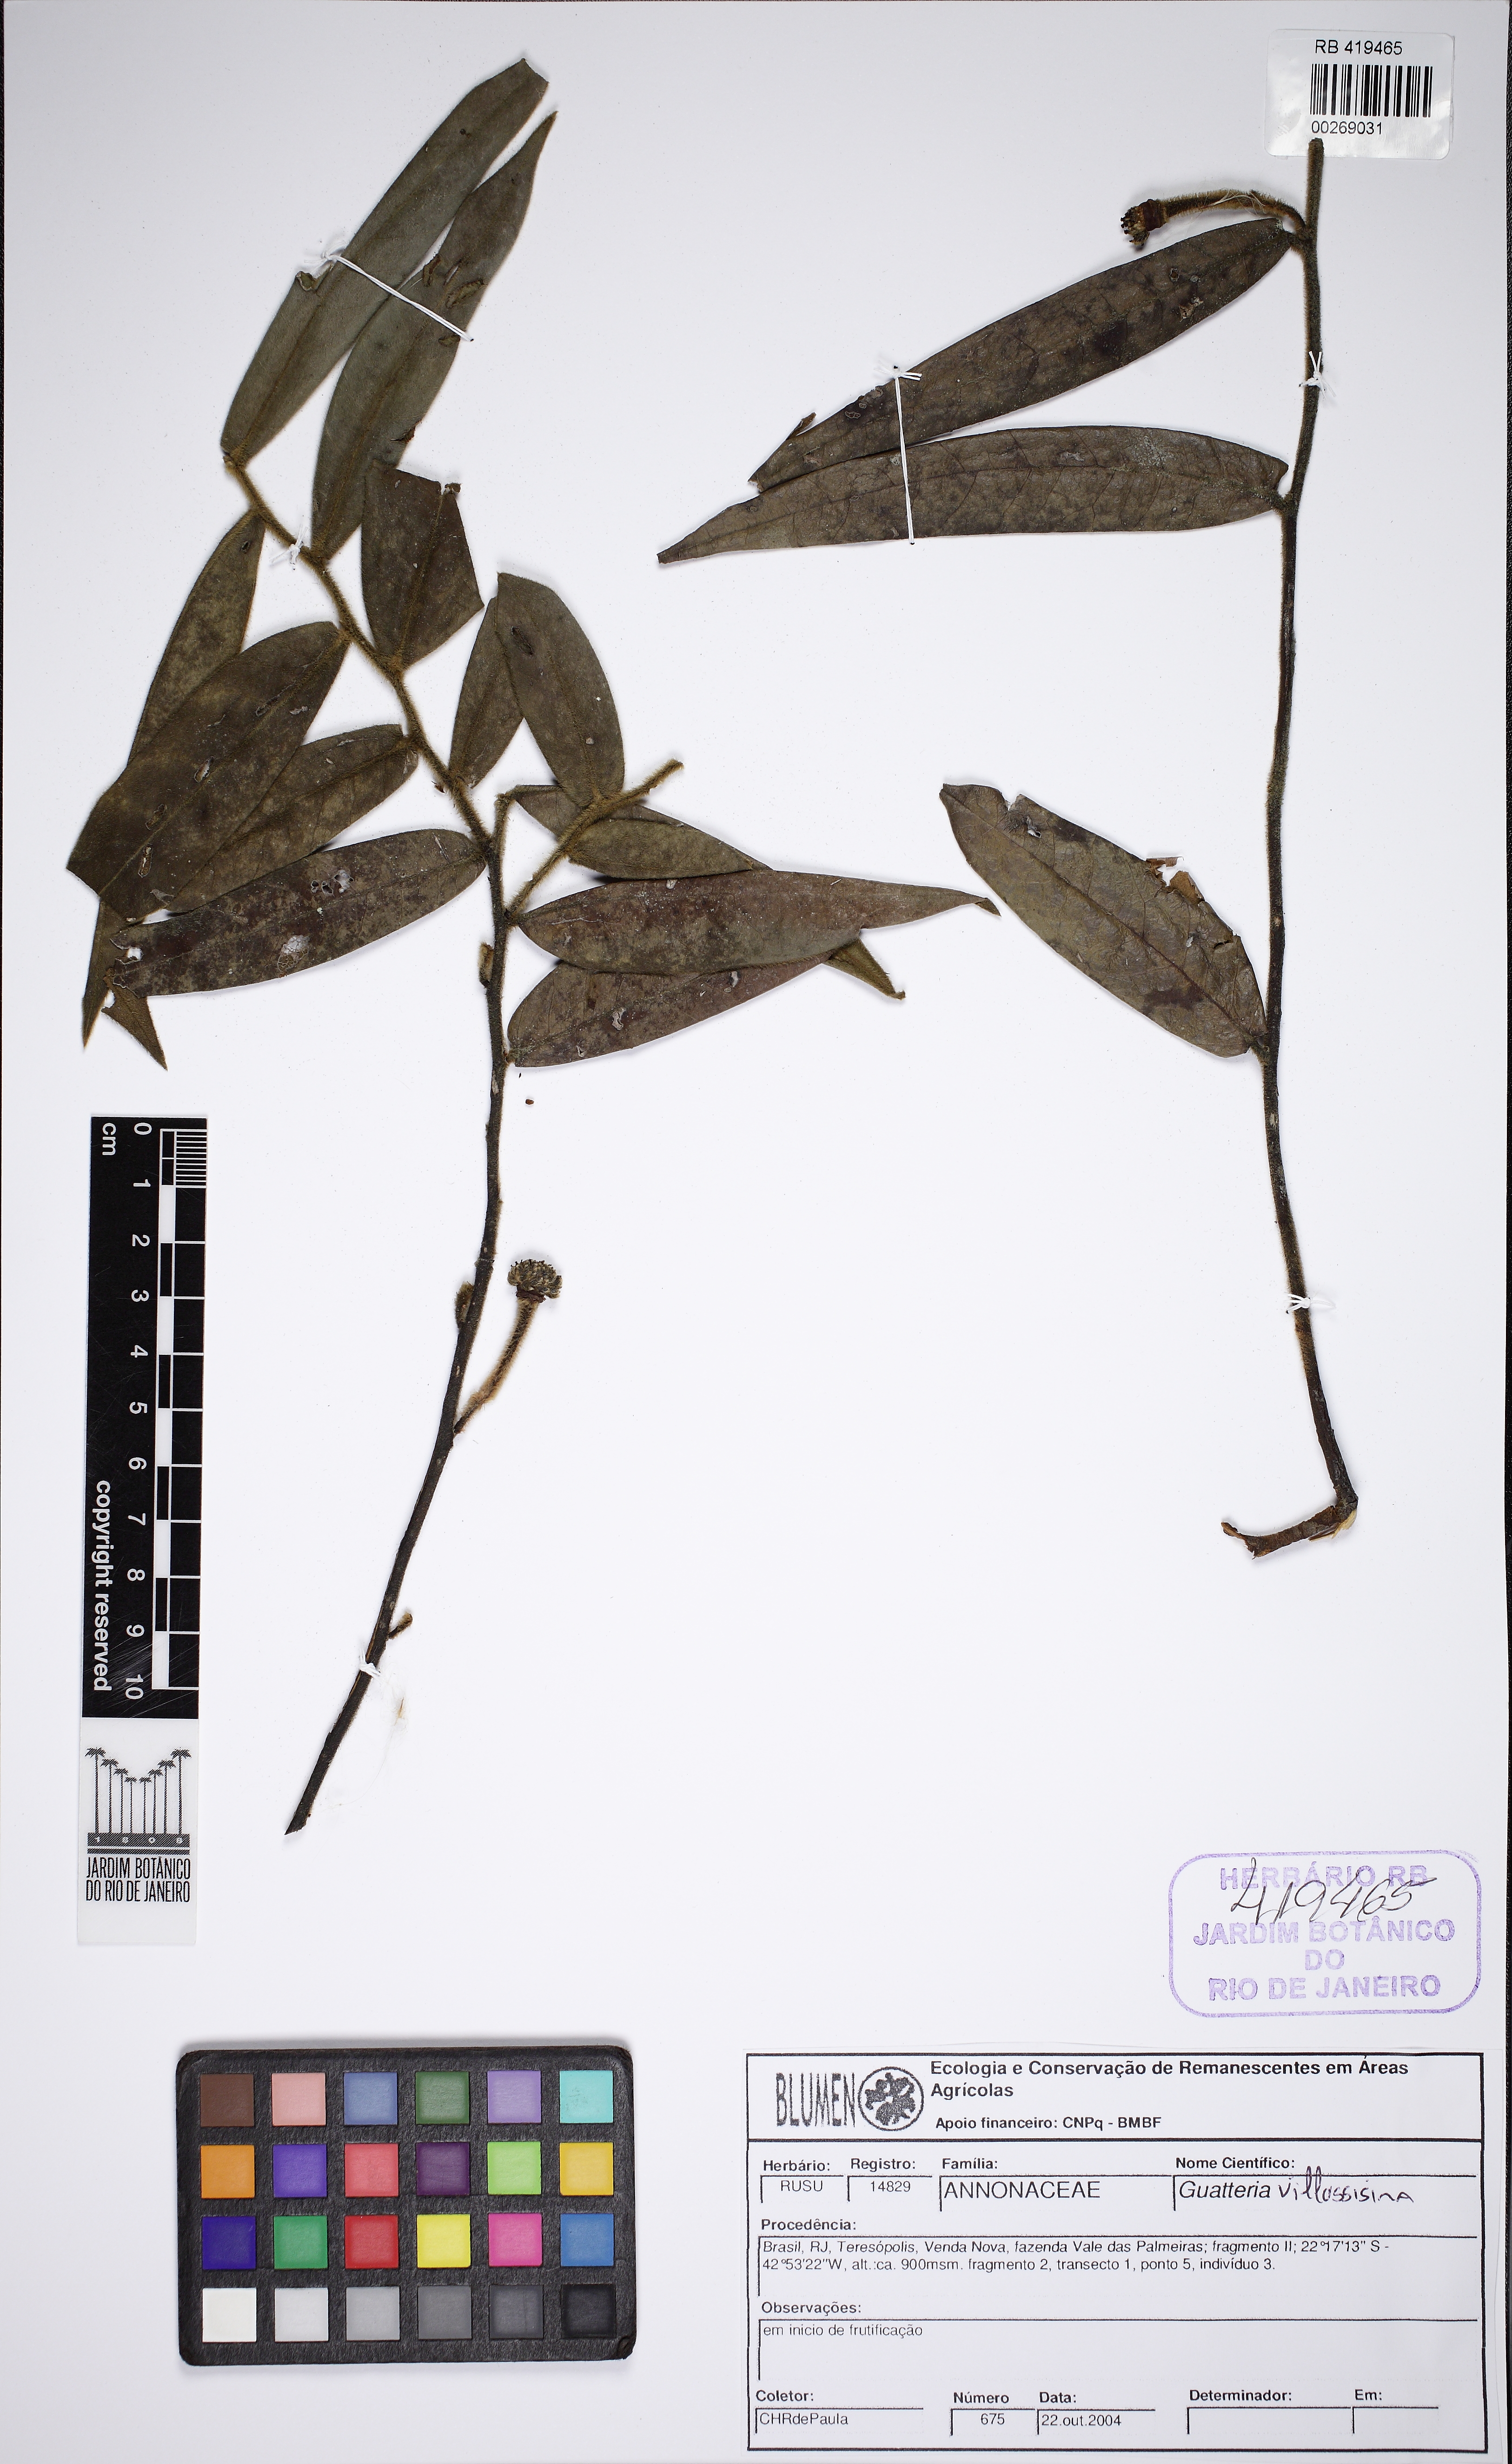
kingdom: Plantae
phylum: Tracheophyta
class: Magnoliopsida
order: Magnoliales
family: Annonaceae
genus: Guatteria
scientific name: Guatteria villosissima
